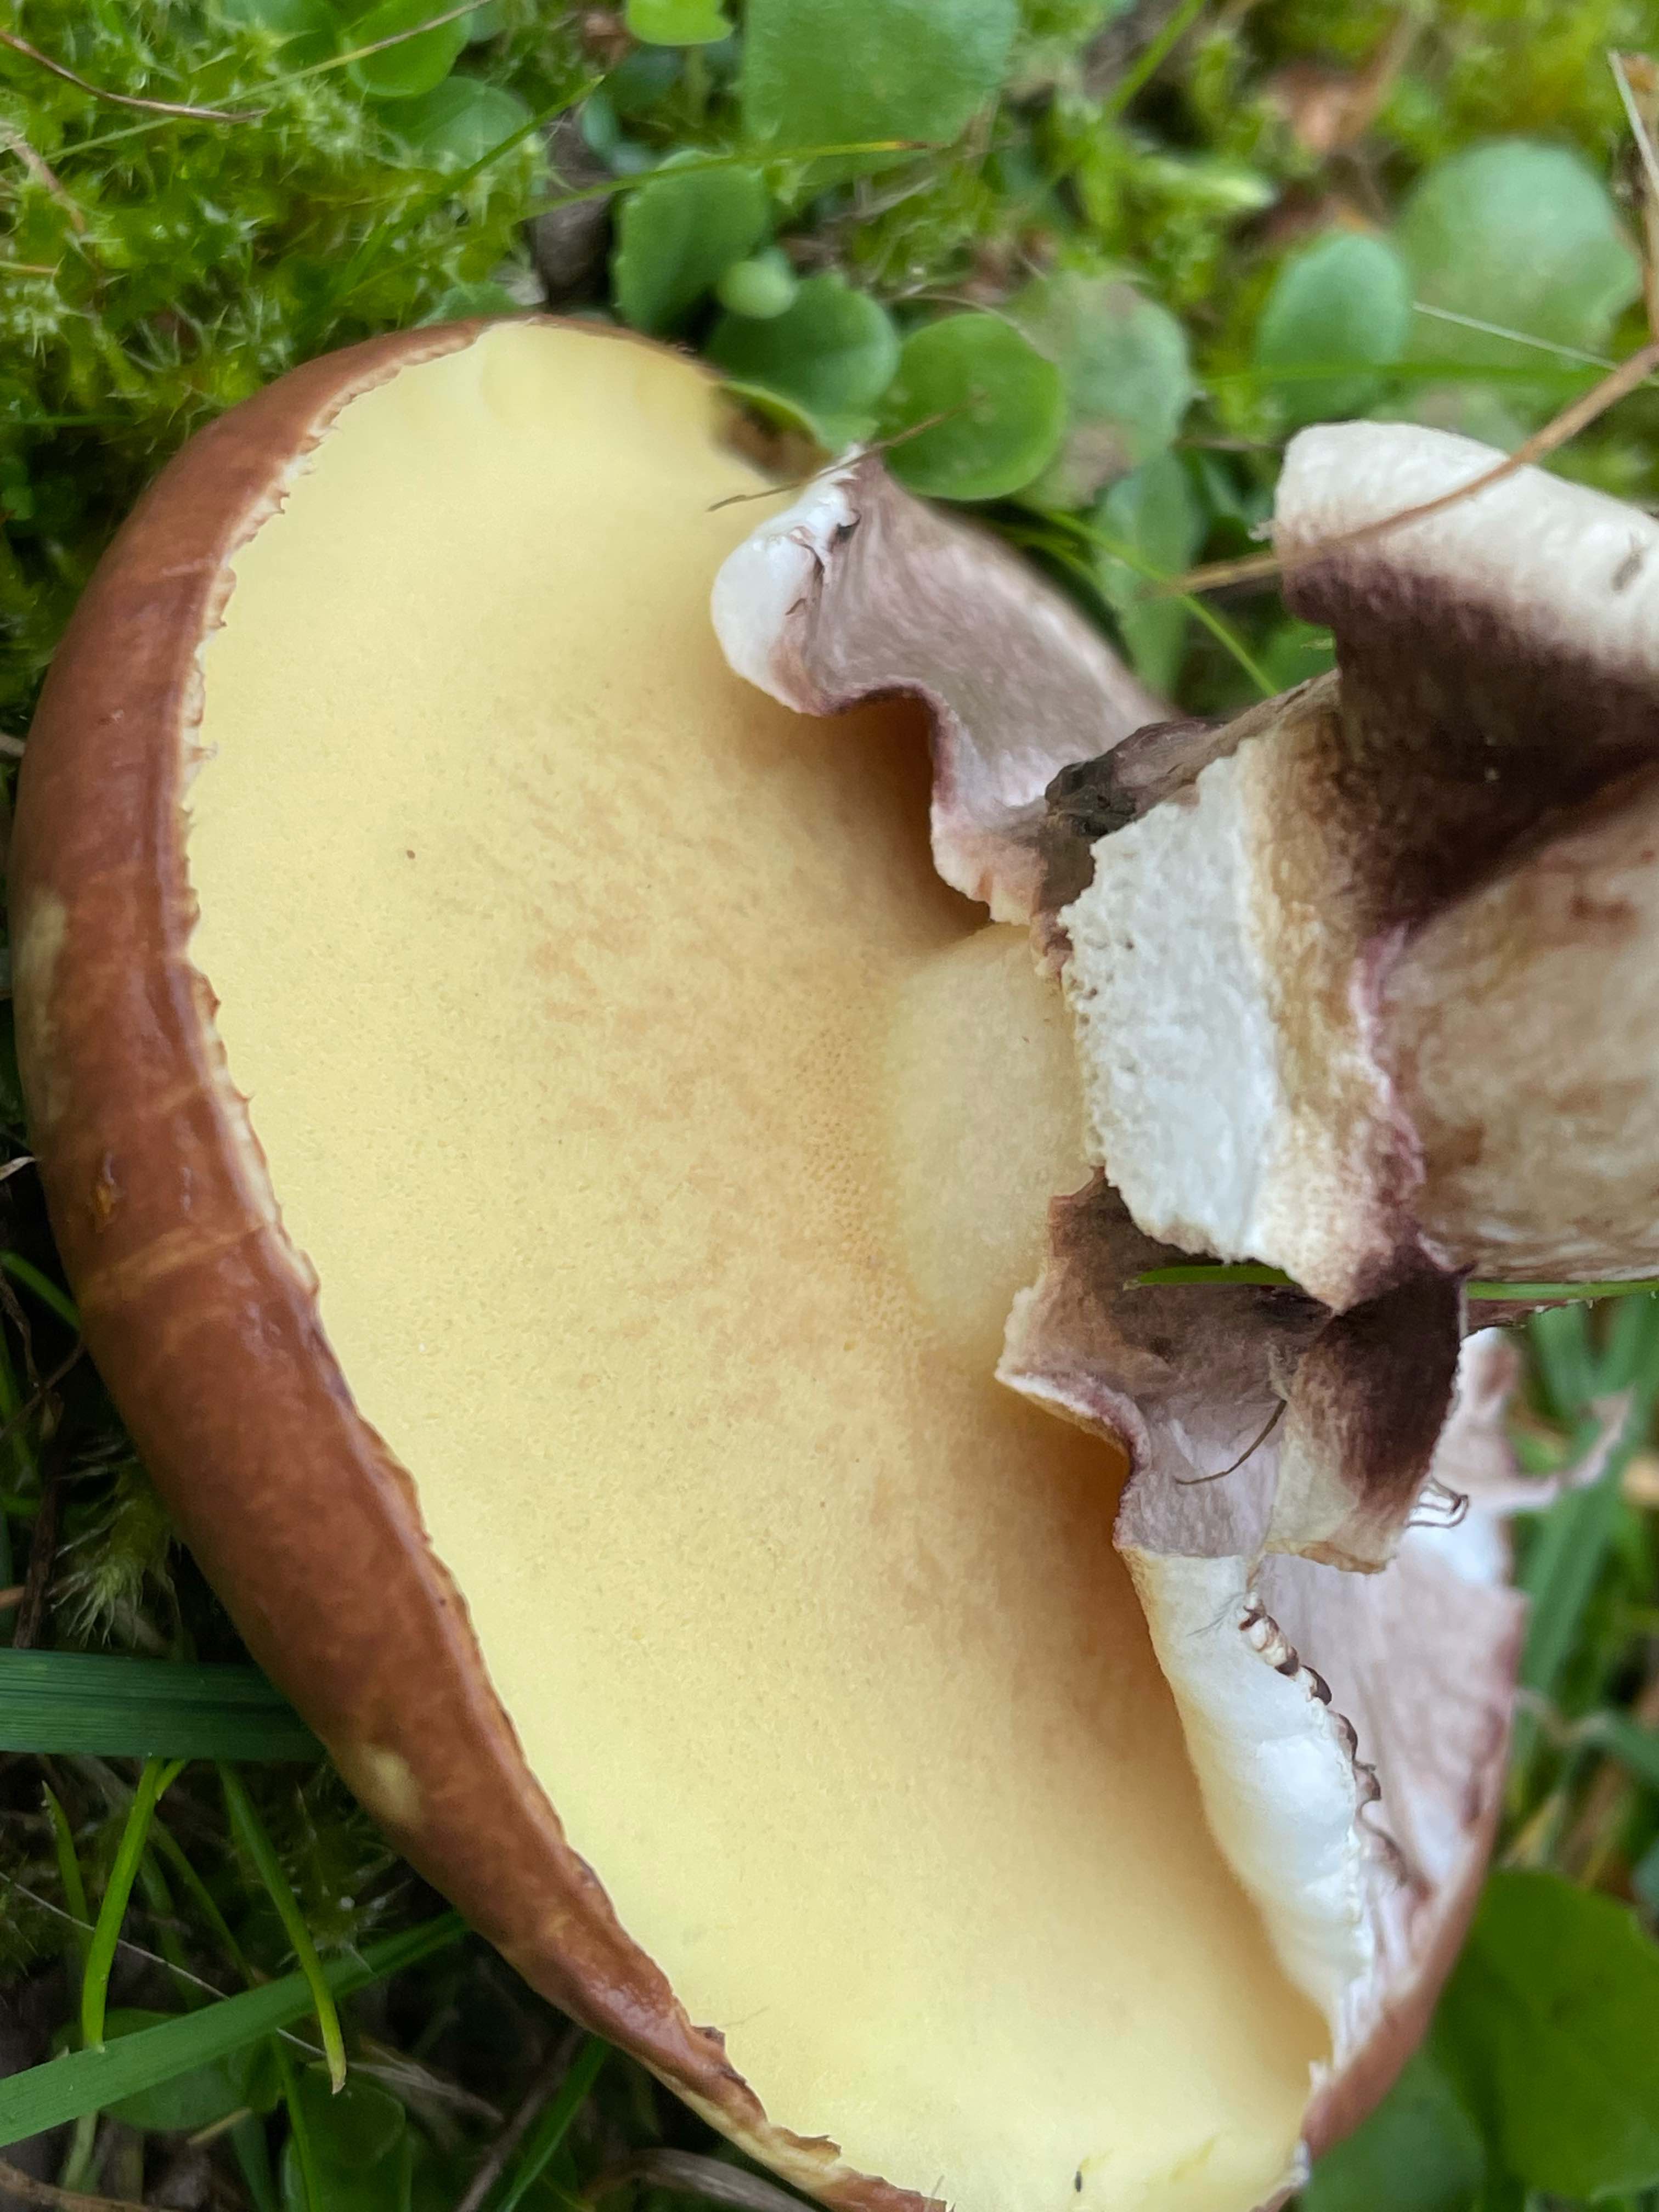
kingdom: Fungi
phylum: Basidiomycota
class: Agaricomycetes
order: Boletales
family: Suillaceae
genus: Suillus
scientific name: Suillus luteus
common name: brungul slimrørhat
